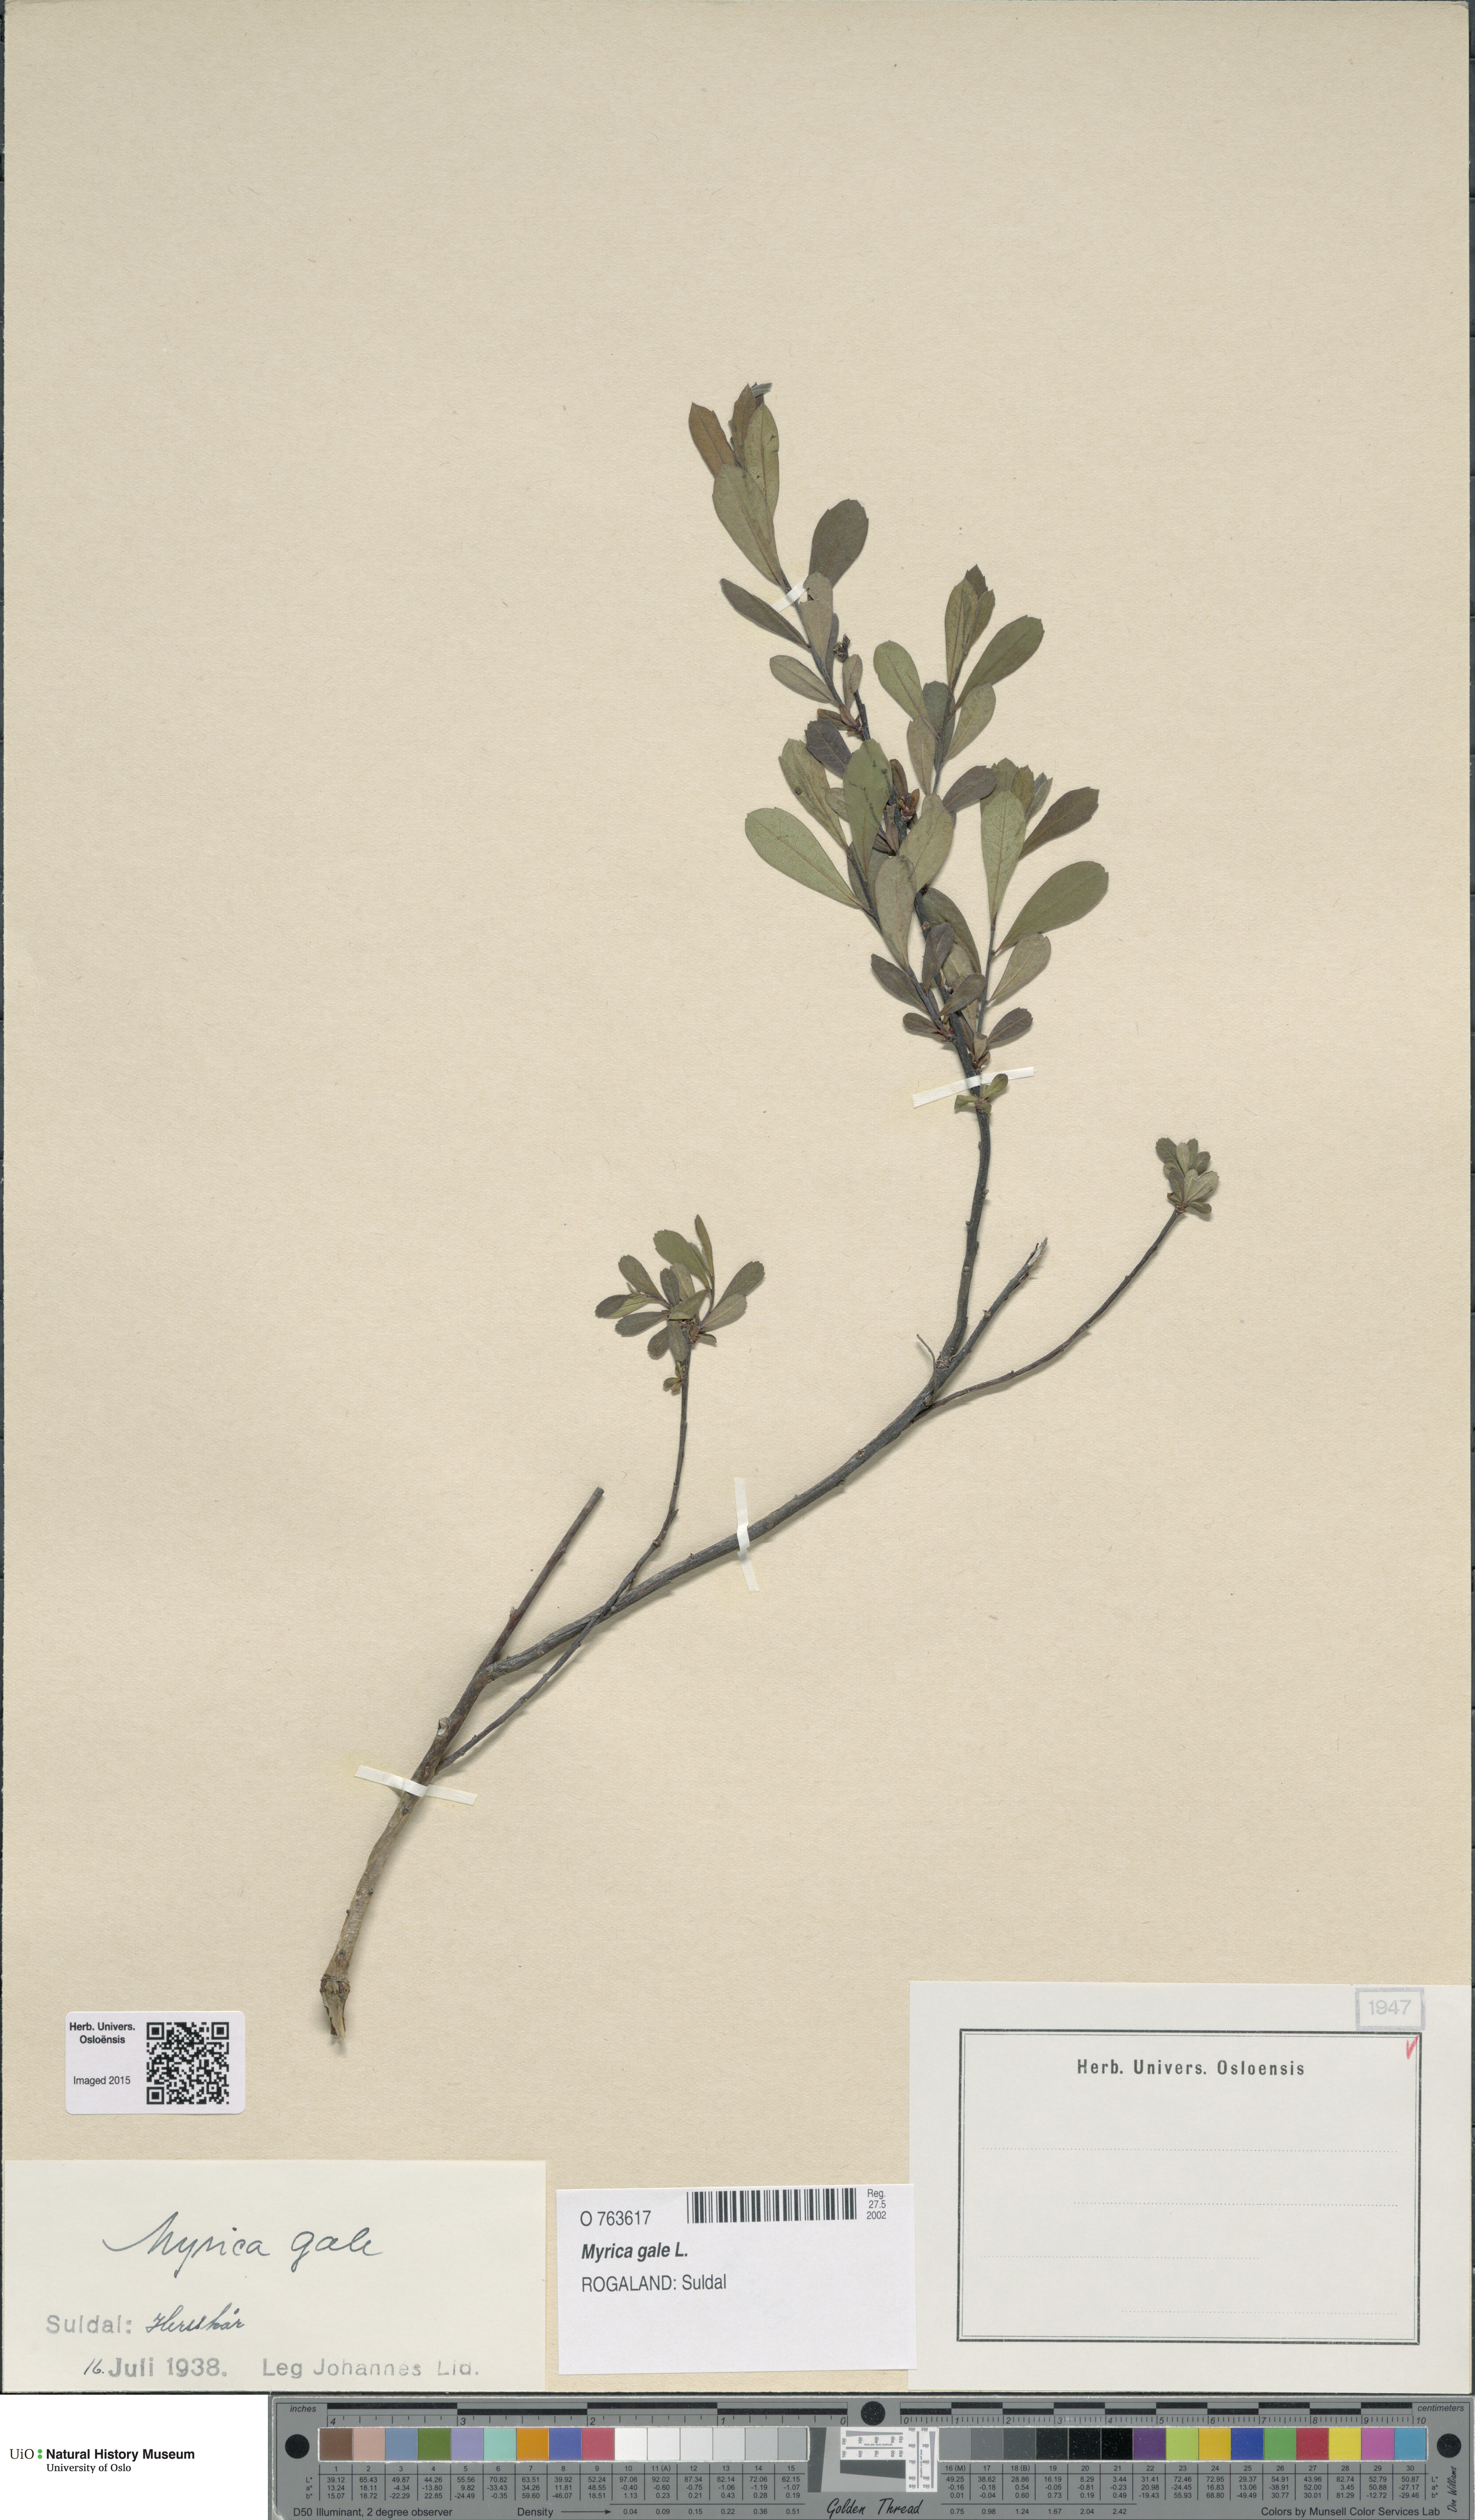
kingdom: Plantae
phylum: Tracheophyta
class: Magnoliopsida
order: Fagales
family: Myricaceae
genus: Myrica
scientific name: Myrica gale
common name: Sweet gale
